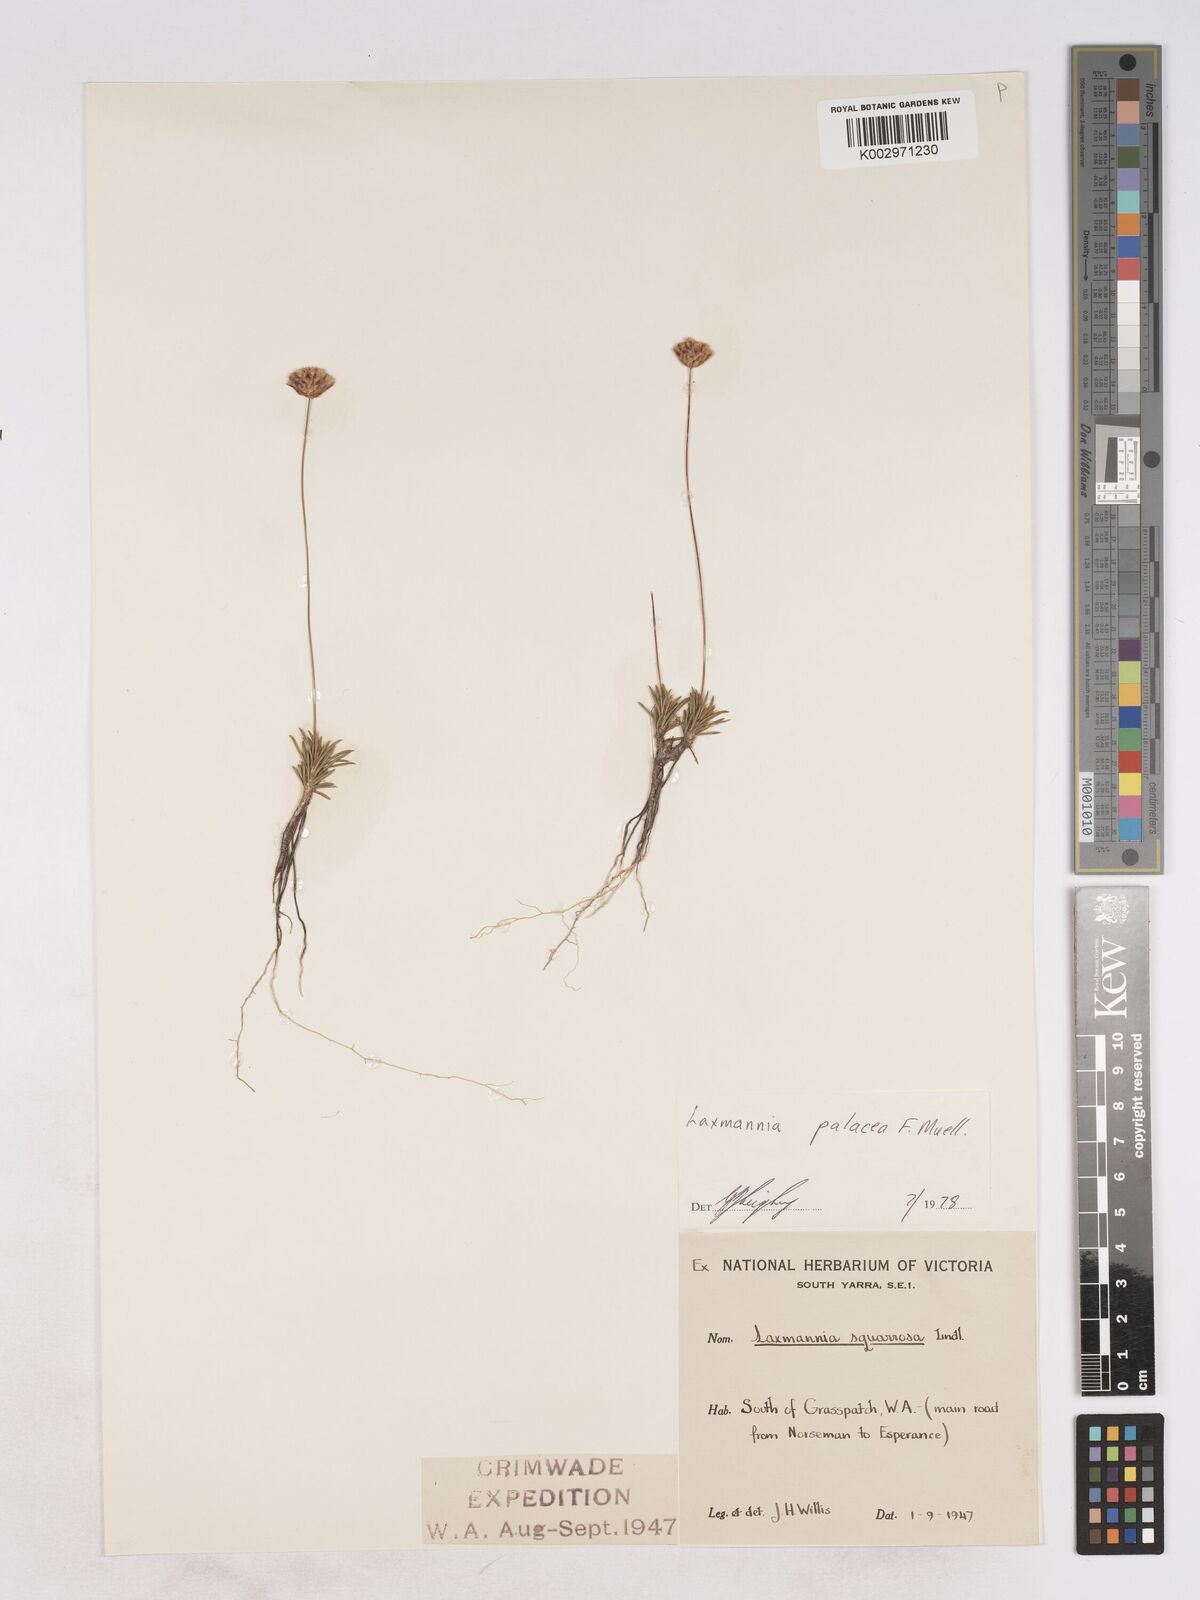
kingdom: Plantae
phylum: Tracheophyta
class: Liliopsida
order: Asparagales
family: Asparagaceae
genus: Laxmannia
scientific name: Laxmannia paleacea
